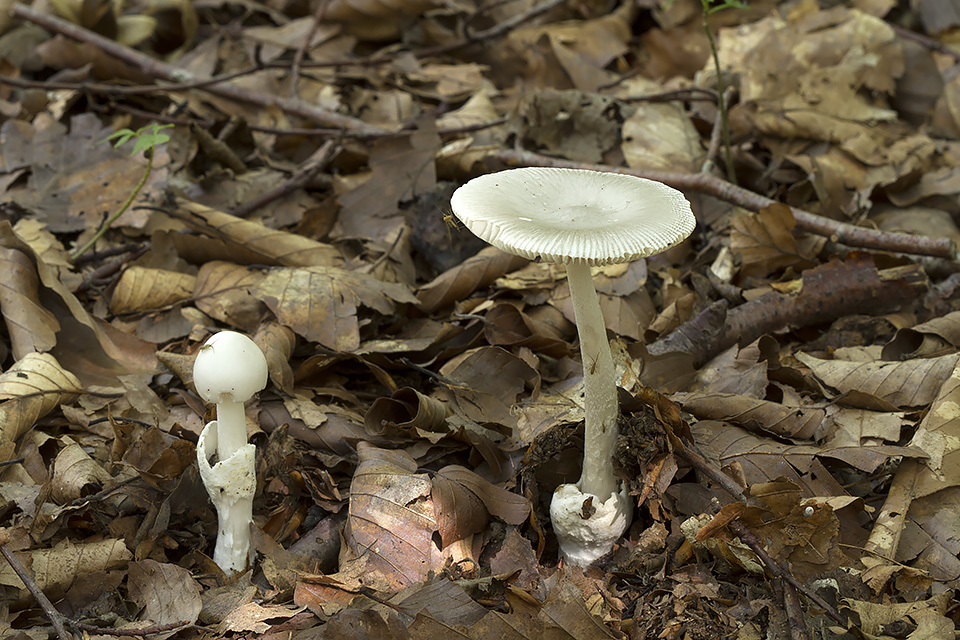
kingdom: Fungi
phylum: Basidiomycota
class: Agaricomycetes
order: Agaricales
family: Amanitaceae
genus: Amanita
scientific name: Amanita vaginata
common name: grå kam-fluesvamp
